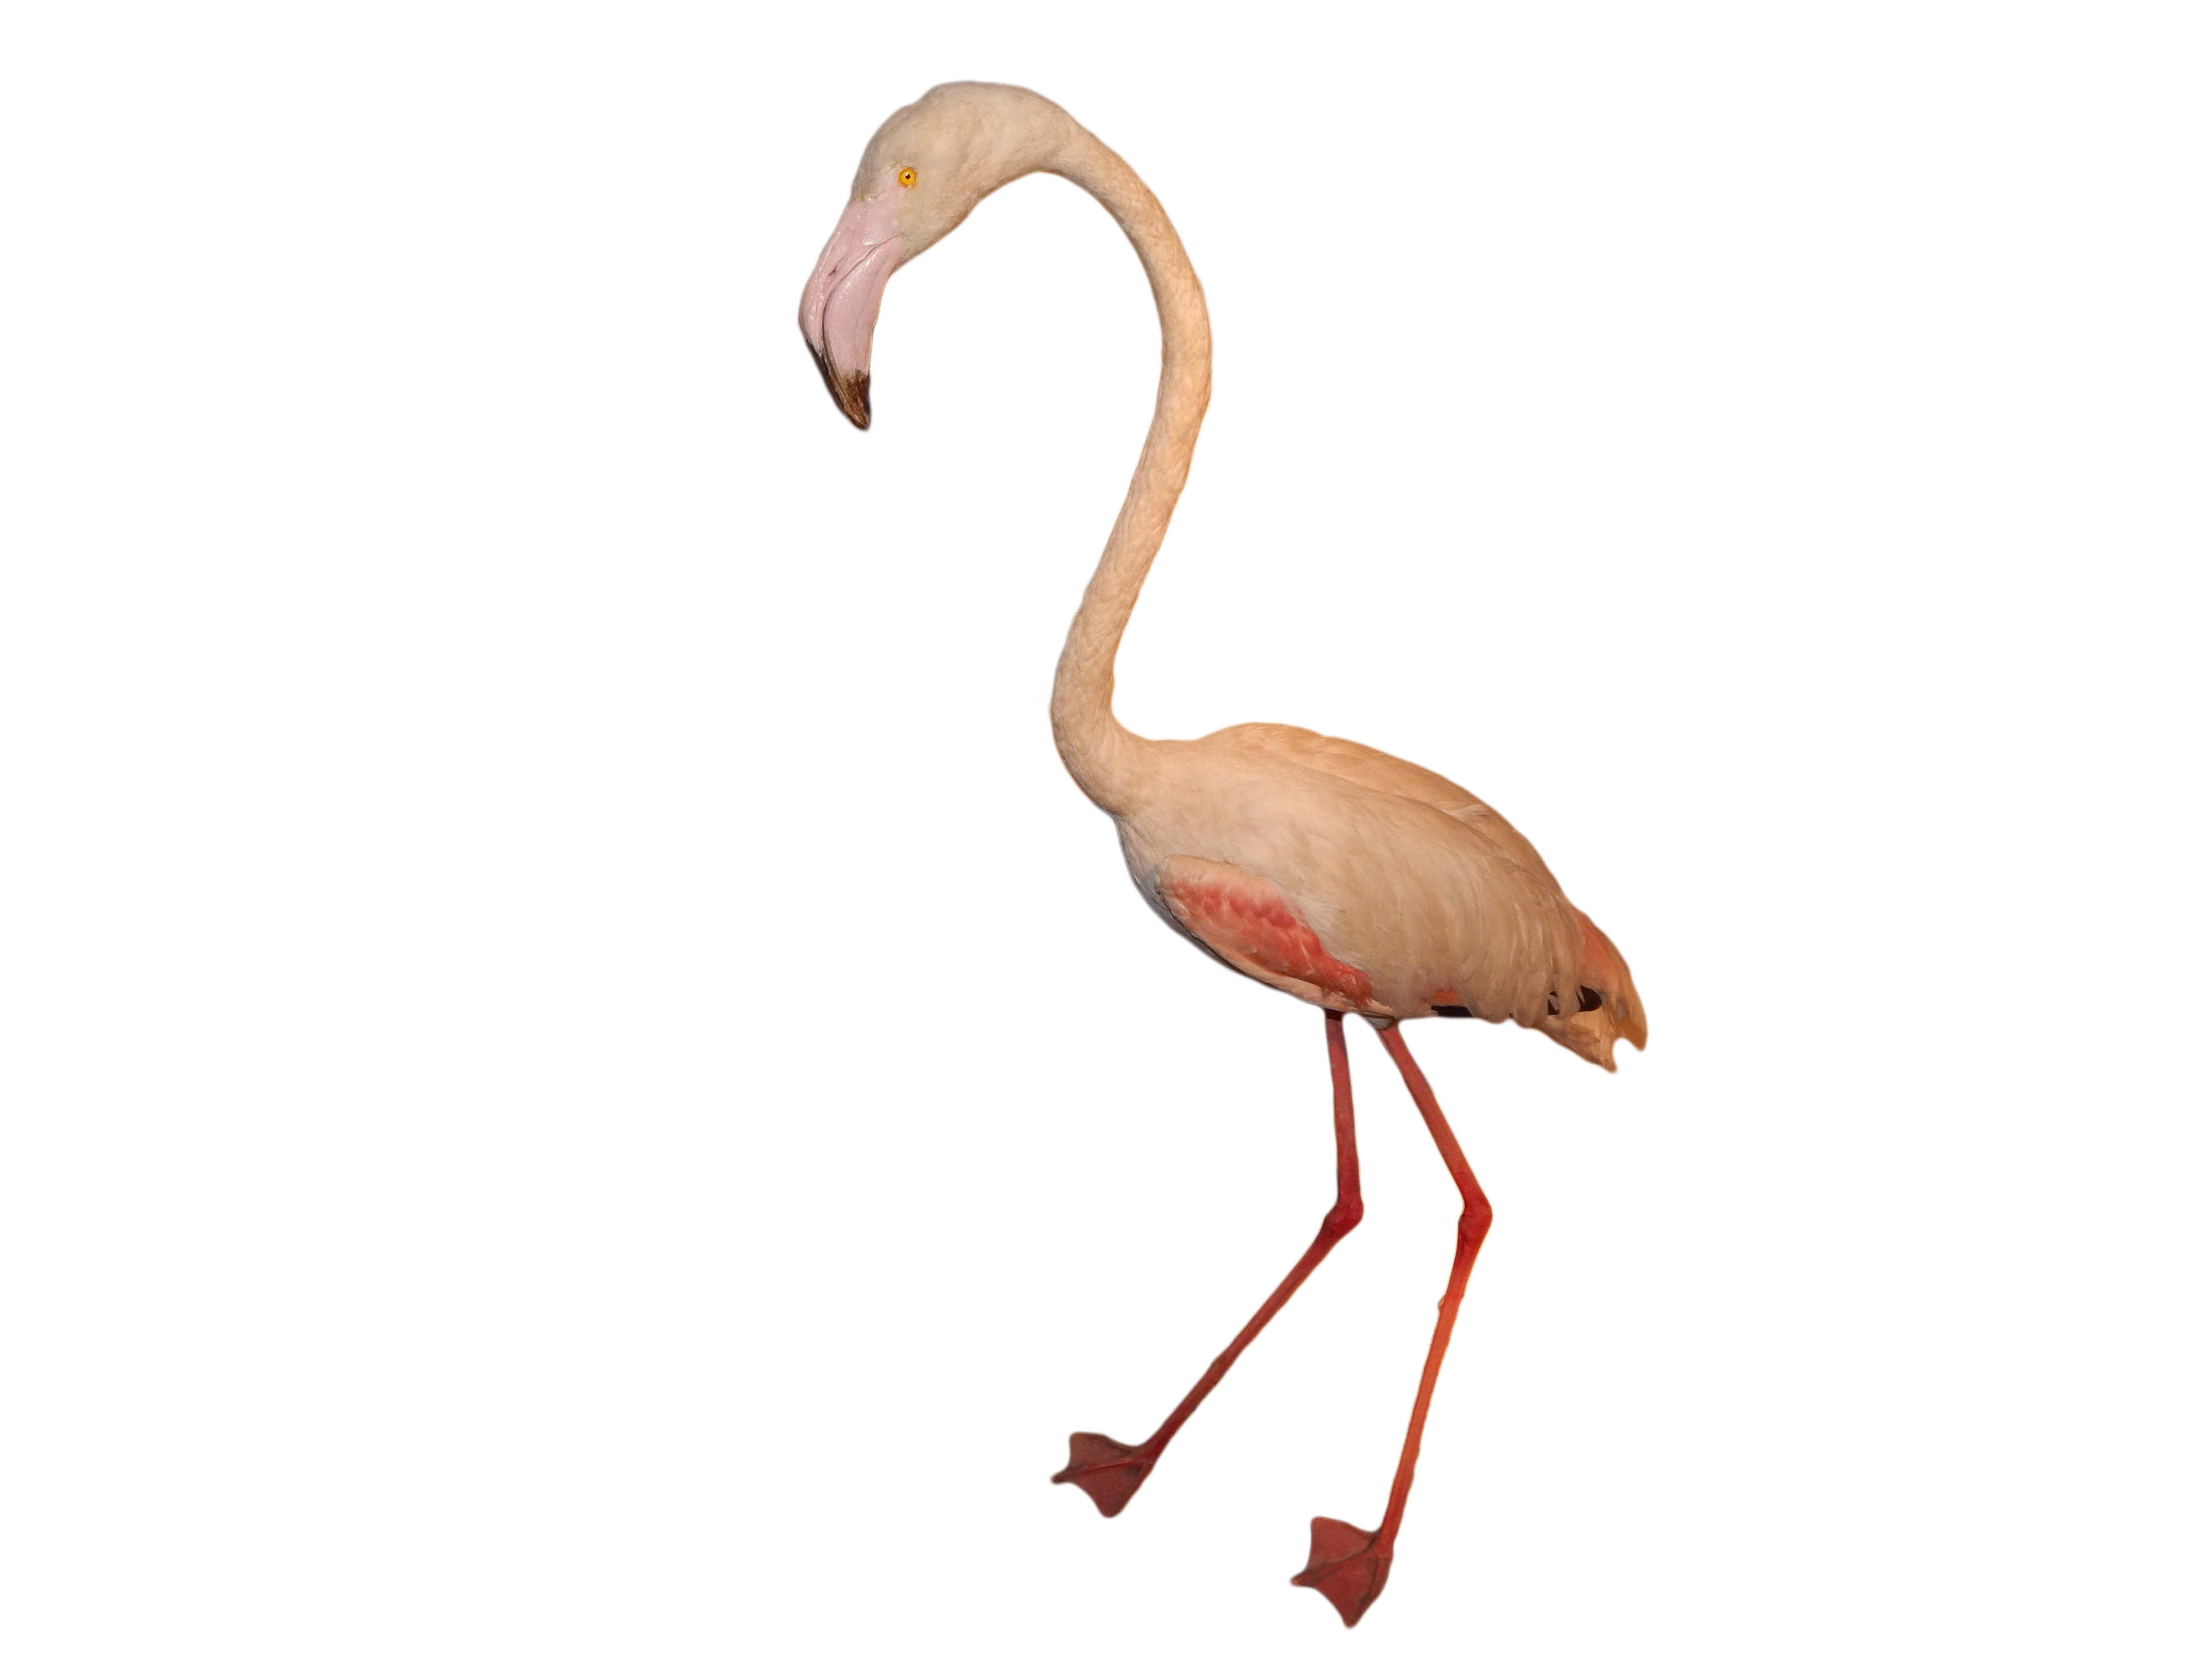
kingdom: Animalia
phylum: Chordata
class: Aves
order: Phoenicopteriformes
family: Phoenicopteridae
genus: Phoenicopterus
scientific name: Phoenicopterus roseus
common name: Greater flamingo
